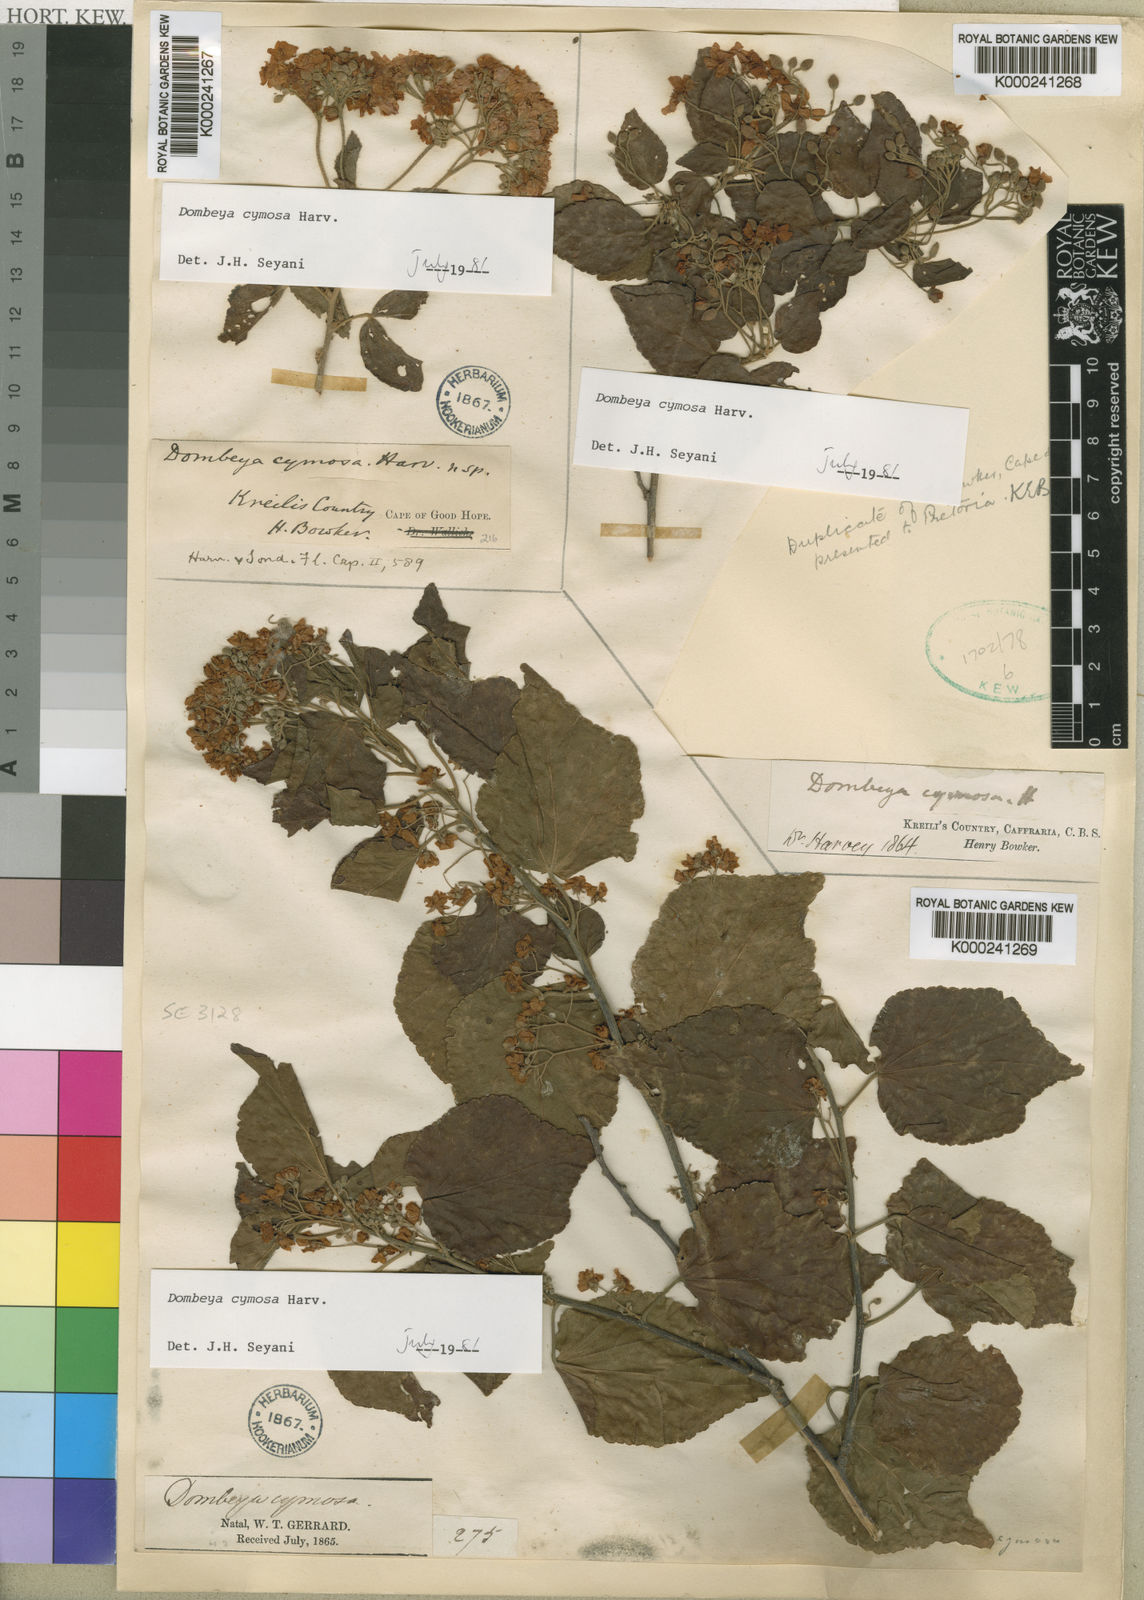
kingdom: Plantae
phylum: Tracheophyta
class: Magnoliopsida
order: Malvales
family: Malvaceae
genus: Dombeya
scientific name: Dombeya cymosa
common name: Hairless dombeya
